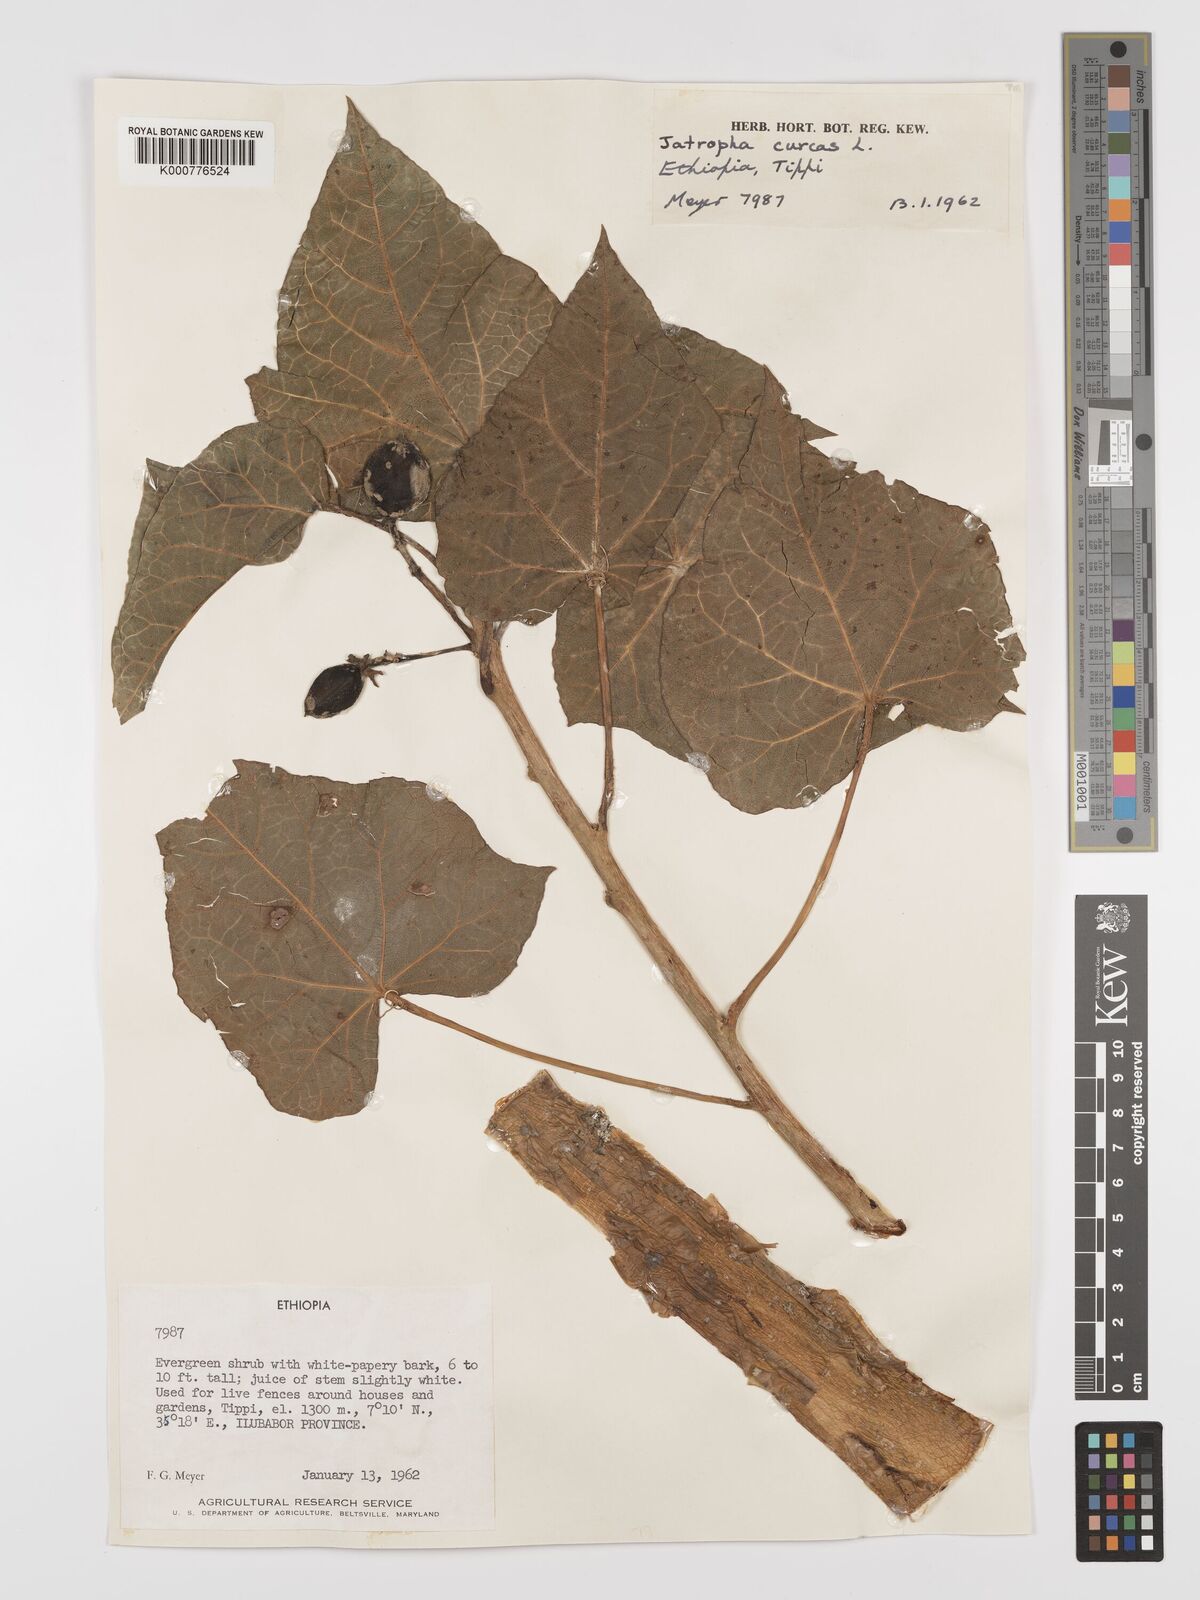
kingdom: Plantae
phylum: Tracheophyta
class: Magnoliopsida
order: Malpighiales
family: Euphorbiaceae
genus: Jatropha
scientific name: Jatropha curcas
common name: Barbados nut
